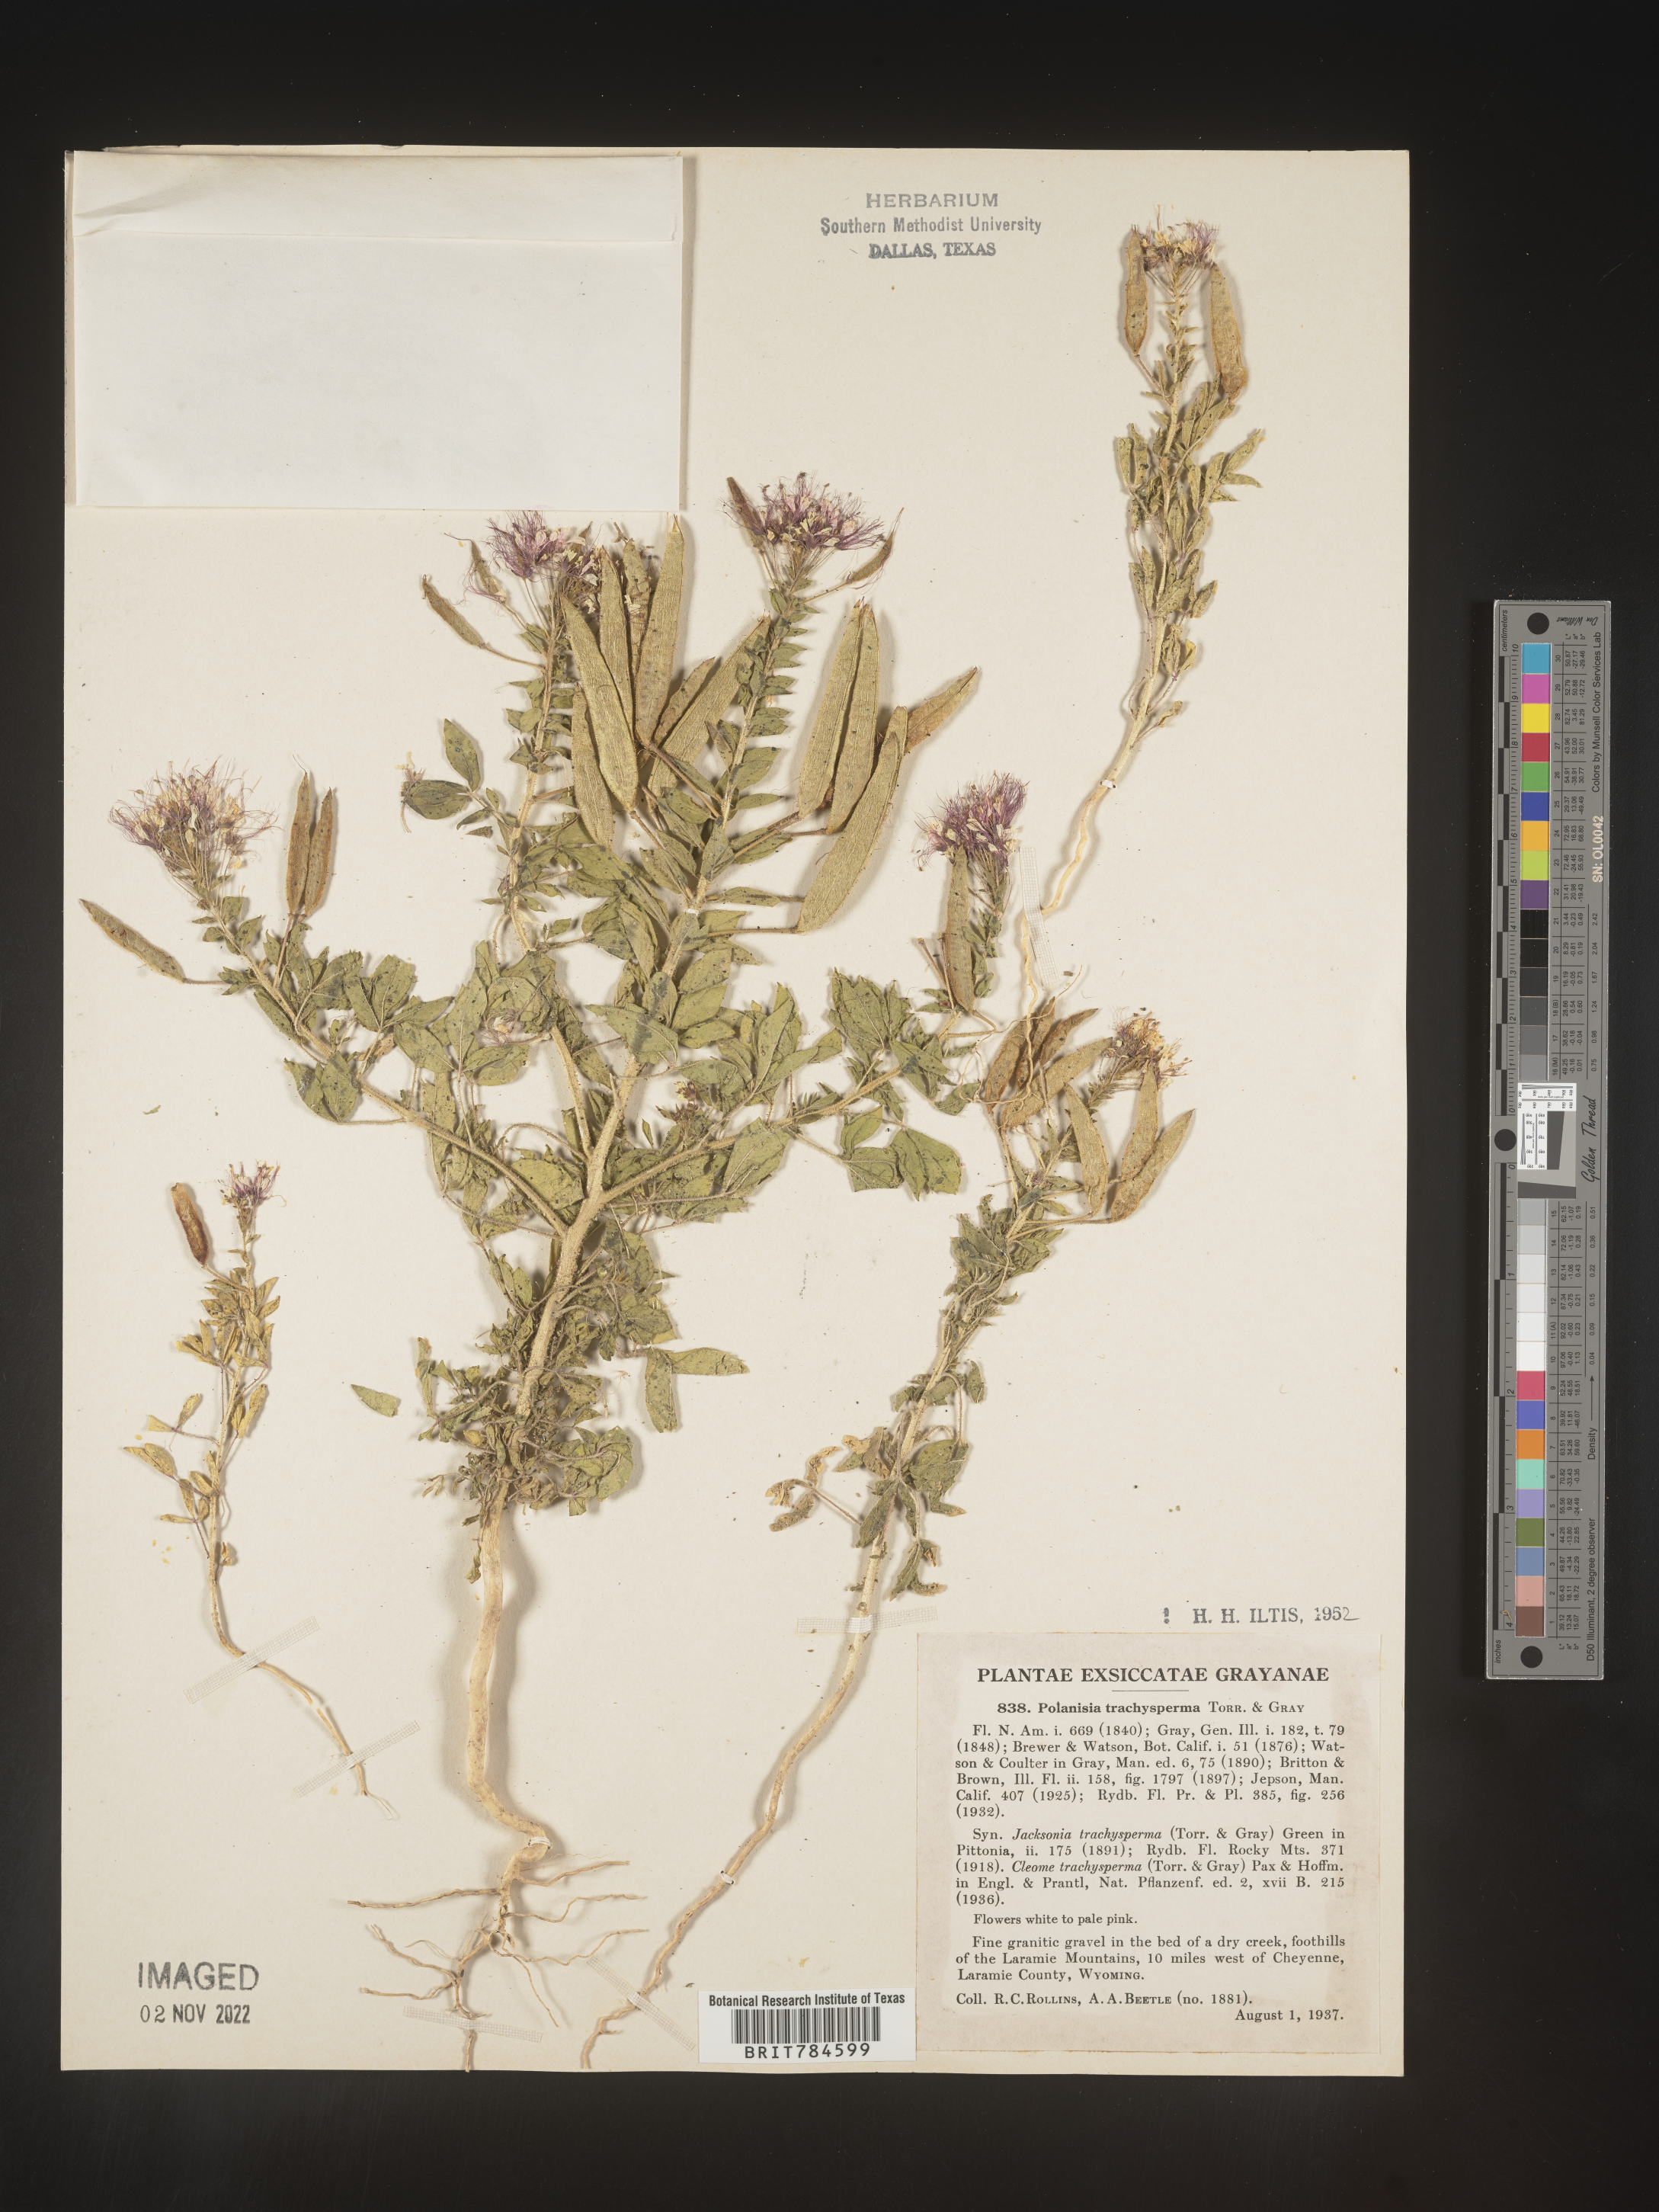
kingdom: Plantae
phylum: Tracheophyta
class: Magnoliopsida
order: Brassicales
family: Cleomaceae
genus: Polanisia
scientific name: Polanisia dodecandra
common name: Clammyweed
